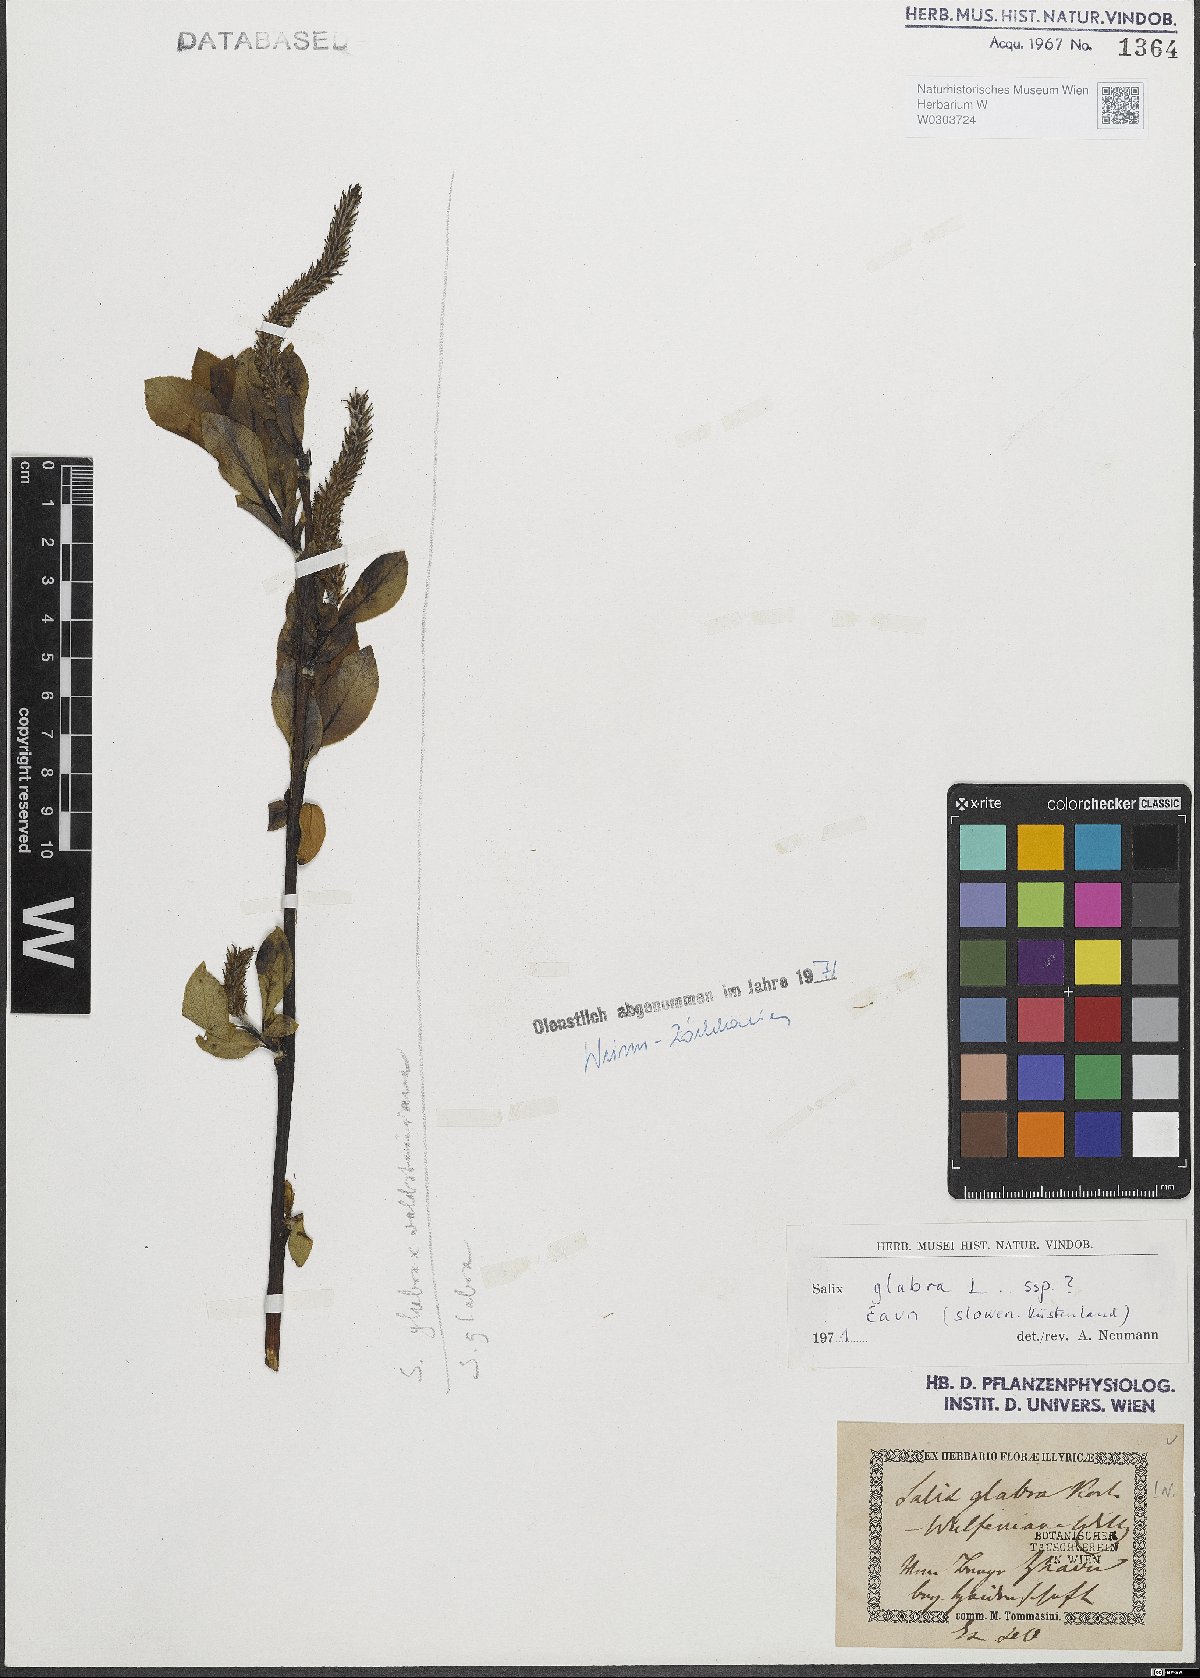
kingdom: Plantae
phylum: Tracheophyta
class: Magnoliopsida
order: Malpighiales
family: Salicaceae
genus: Salix
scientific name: Salix glabra
